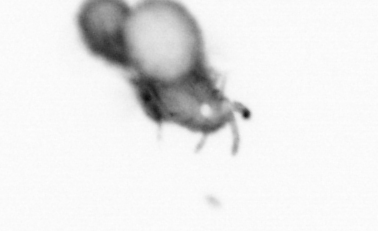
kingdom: Animalia
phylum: Annelida
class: Polychaeta
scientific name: Polychaeta
